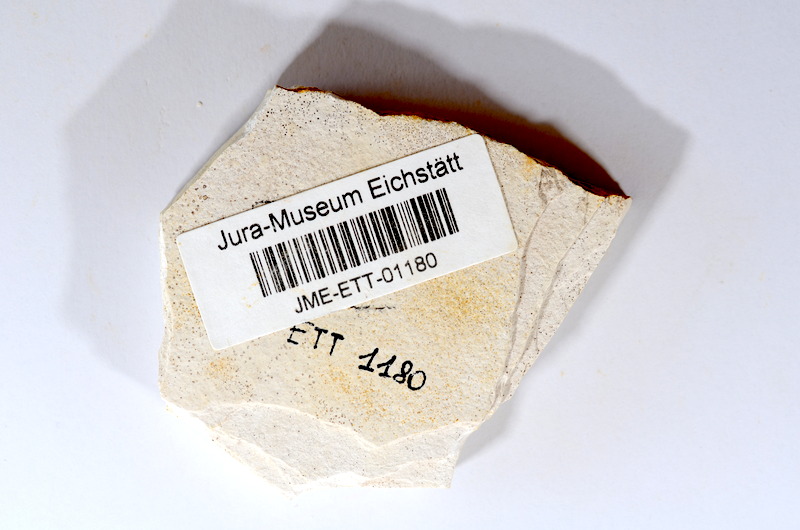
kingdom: Animalia
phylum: Chordata
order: Salmoniformes
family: Orthogonikleithridae
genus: Orthogonikleithrus
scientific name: Orthogonikleithrus hoelli
